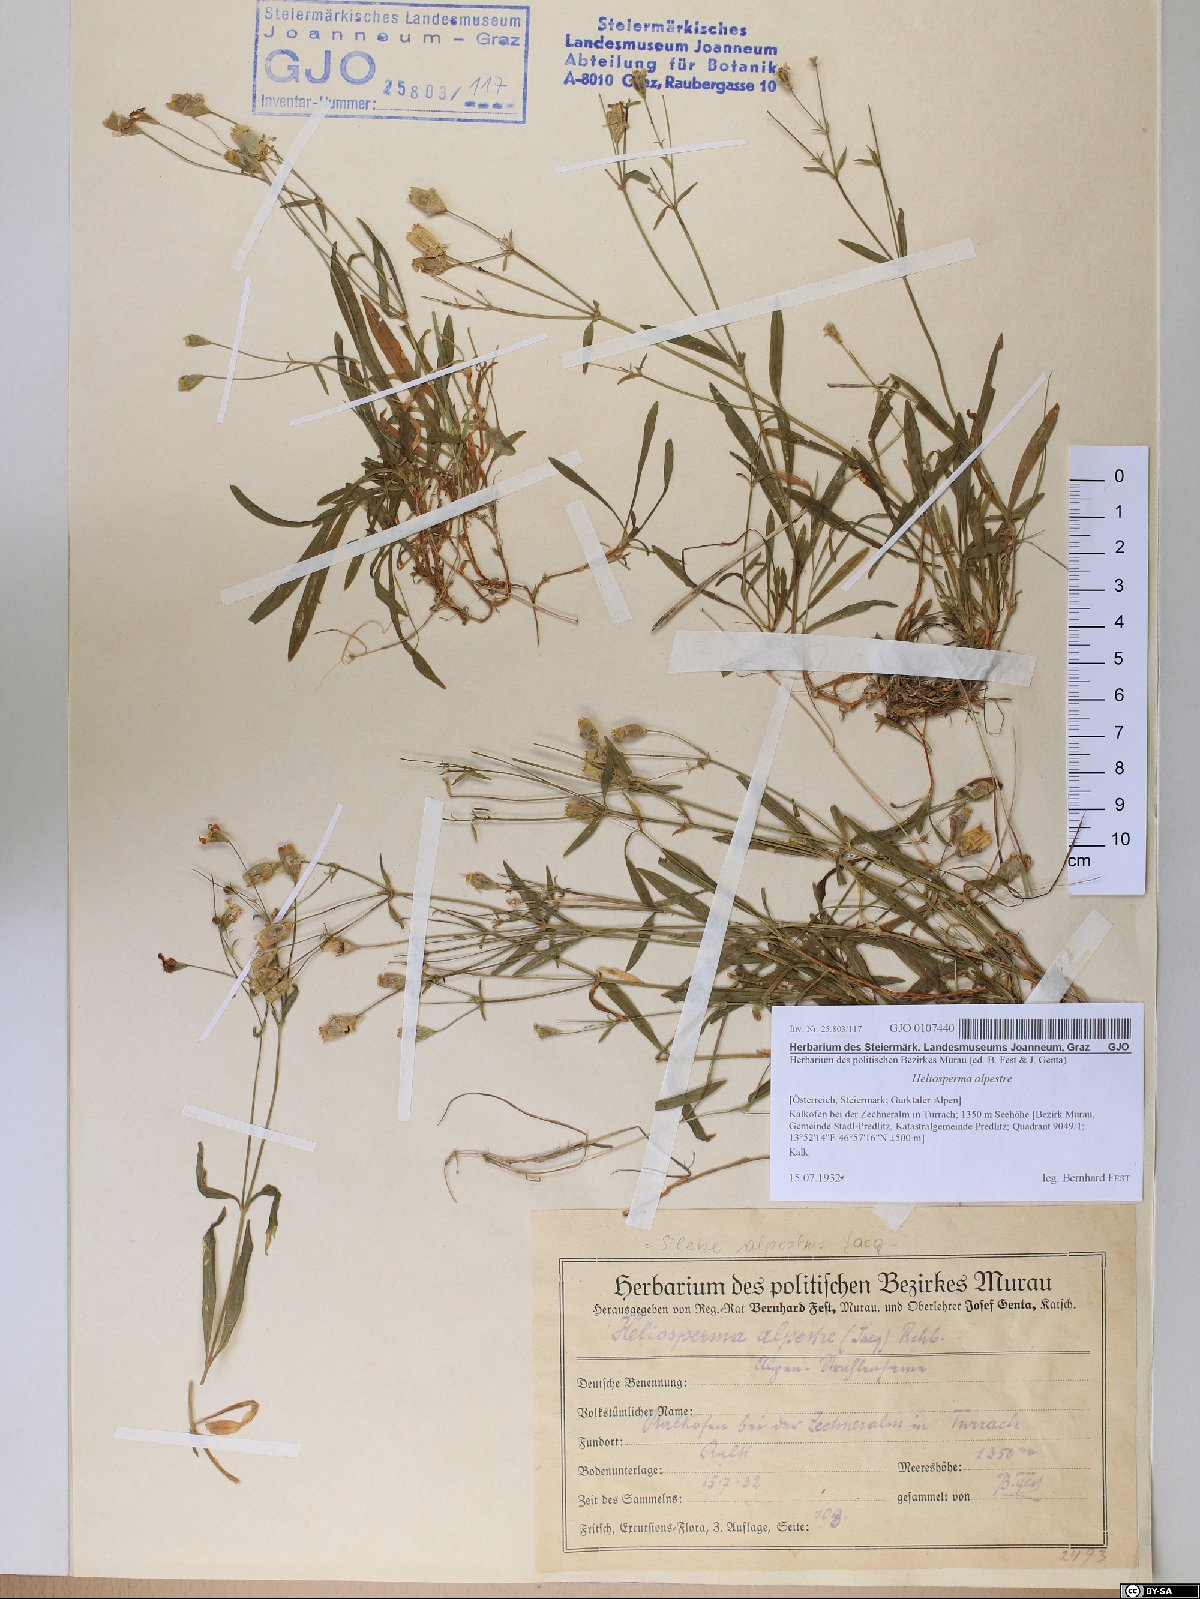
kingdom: Plantae
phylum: Tracheophyta
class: Magnoliopsida
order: Caryophyllales
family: Caryophyllaceae
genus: Heliosperma
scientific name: Heliosperma alpestre
